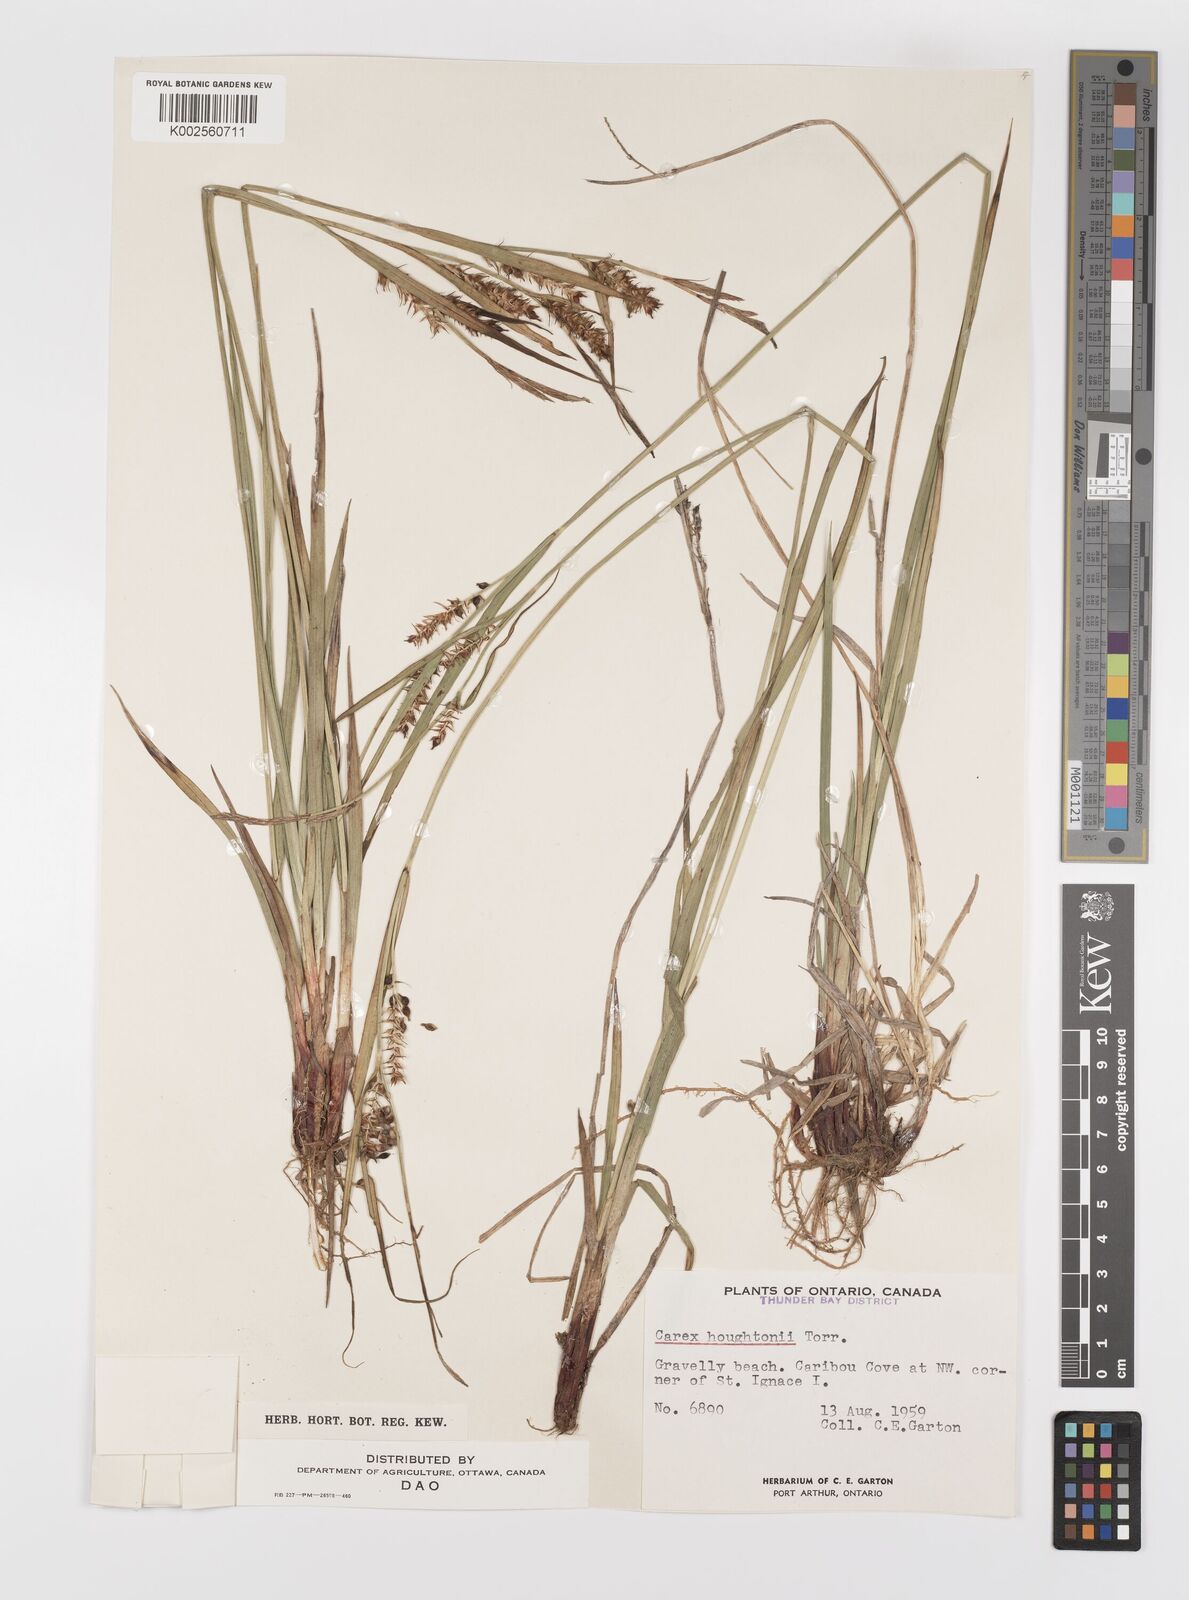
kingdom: Plantae
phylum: Tracheophyta
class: Liliopsida
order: Poales
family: Cyperaceae
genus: Carex
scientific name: Carex houghtoniana
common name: Houghton's sedge
